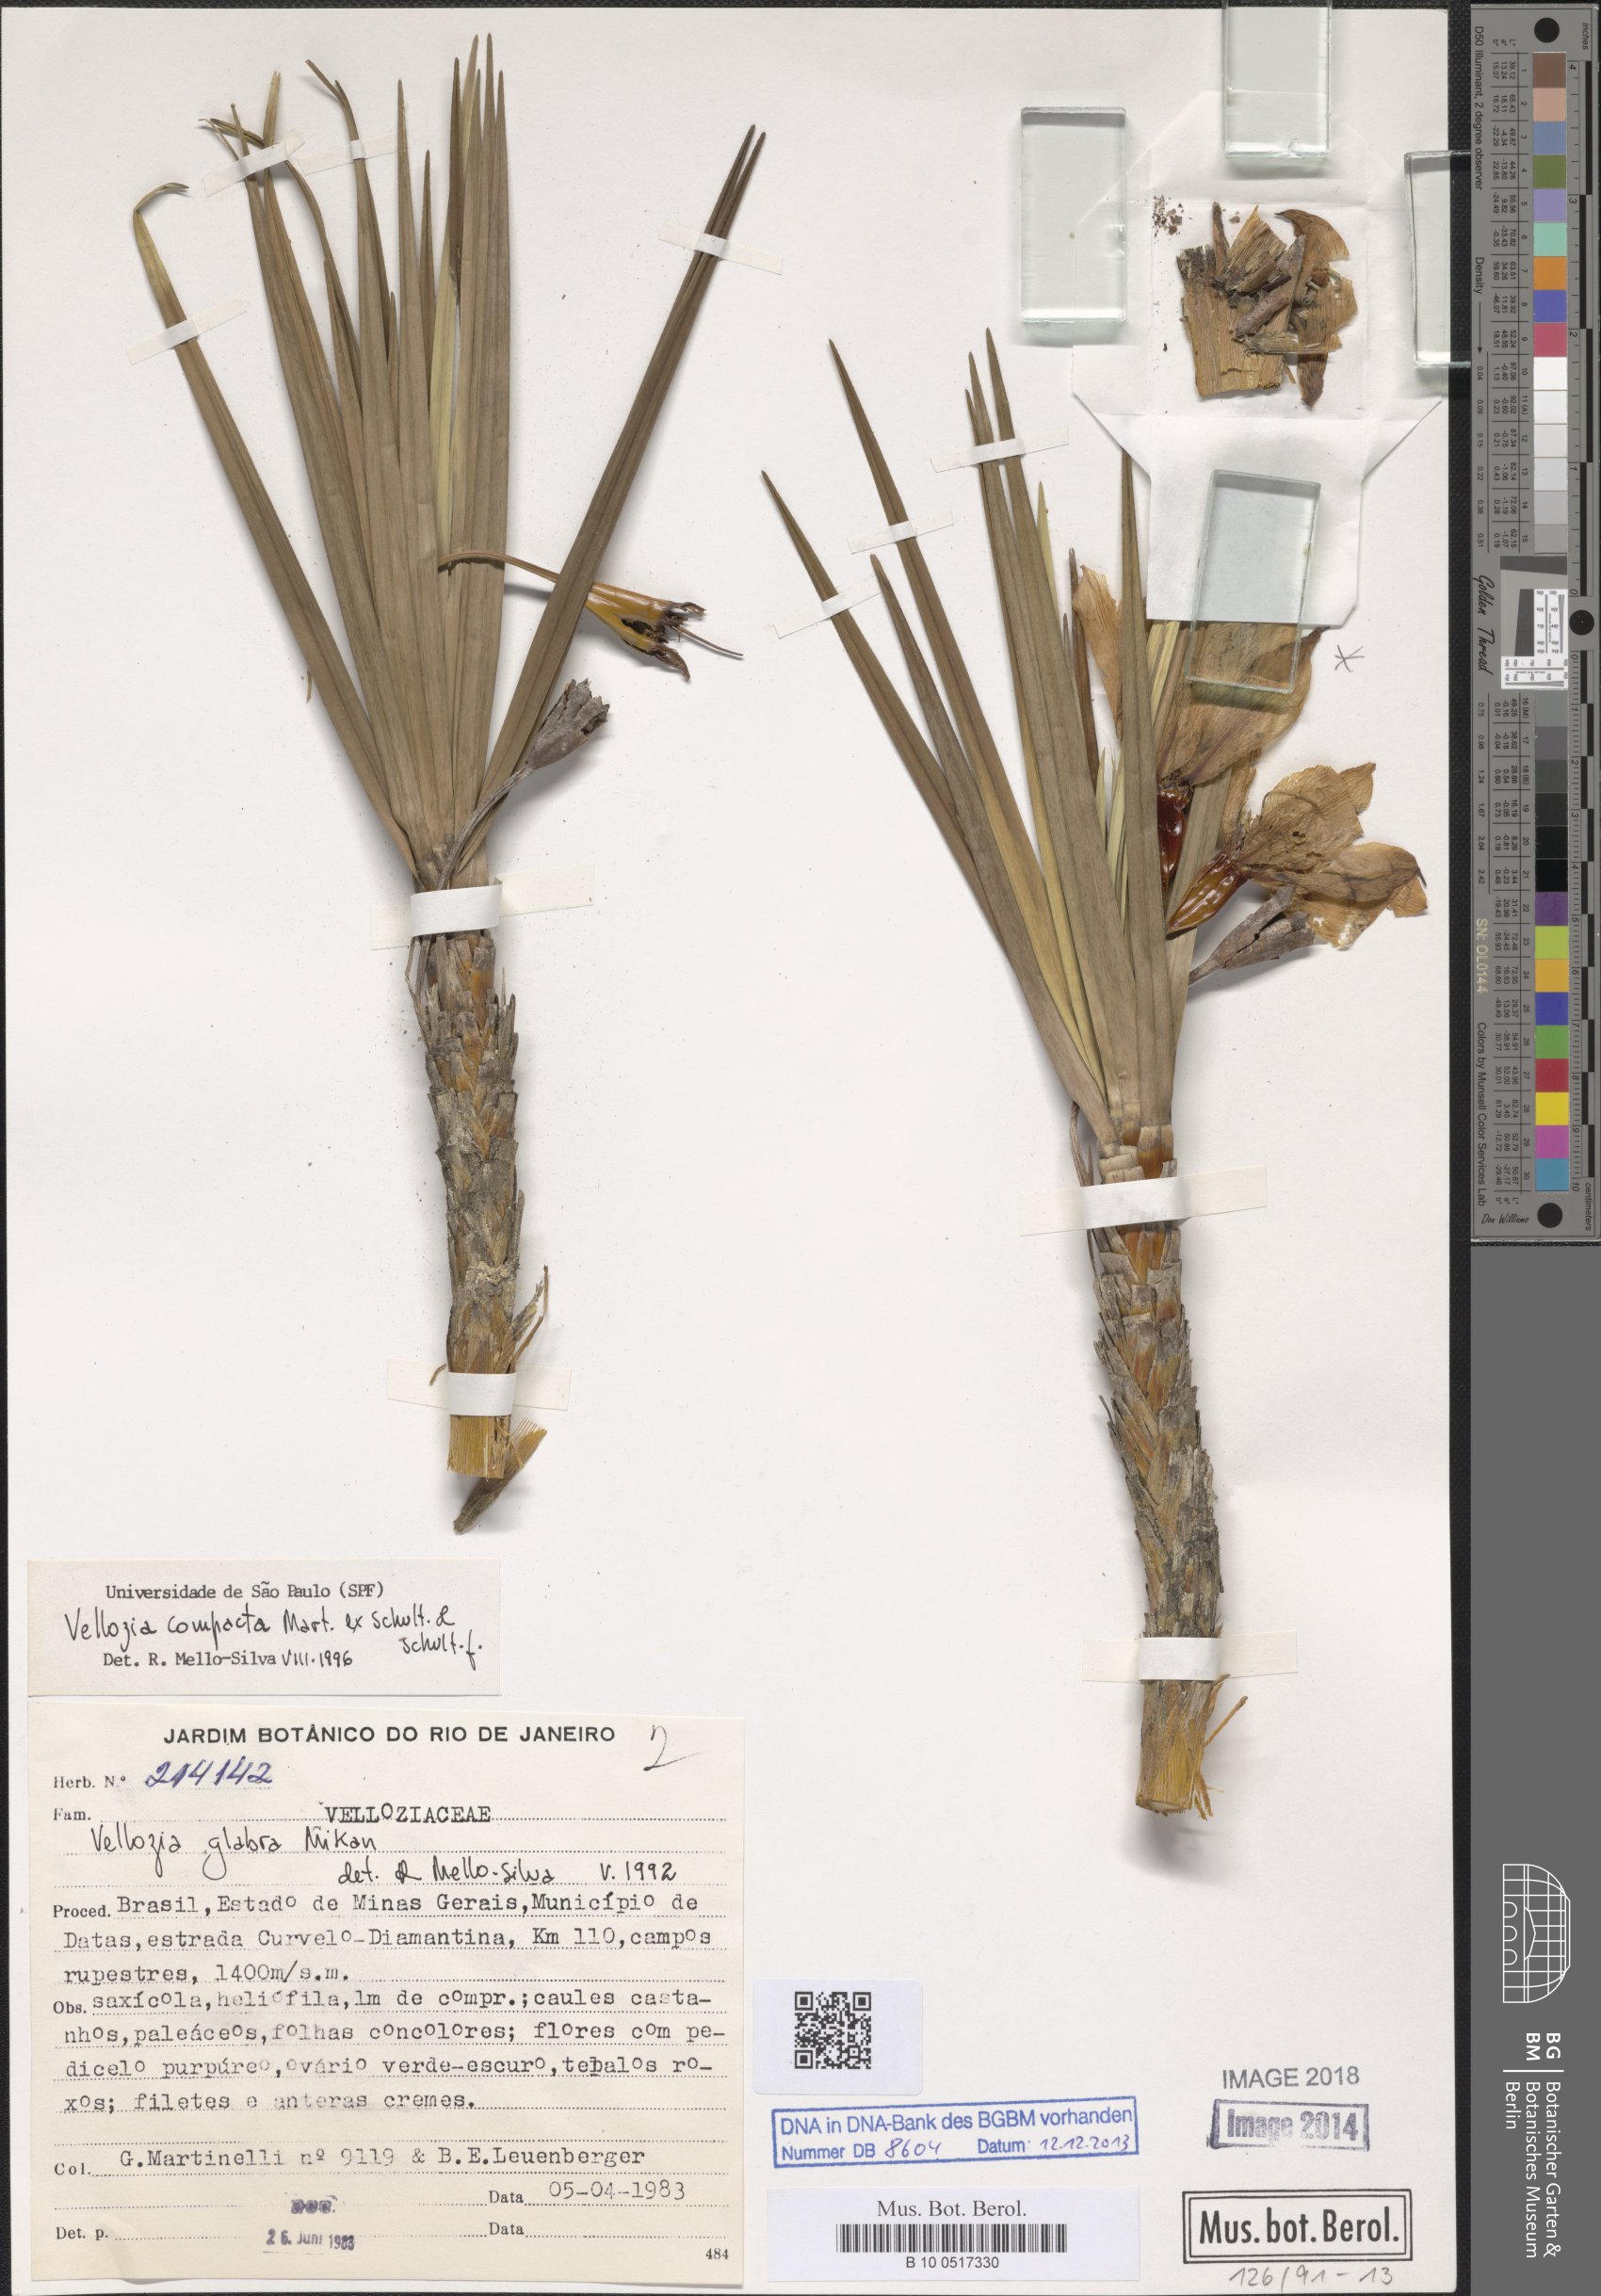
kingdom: Plantae
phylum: Tracheophyta
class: Liliopsida
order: Pandanales
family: Velloziaceae
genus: Vellozia
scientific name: Vellozia compacta
